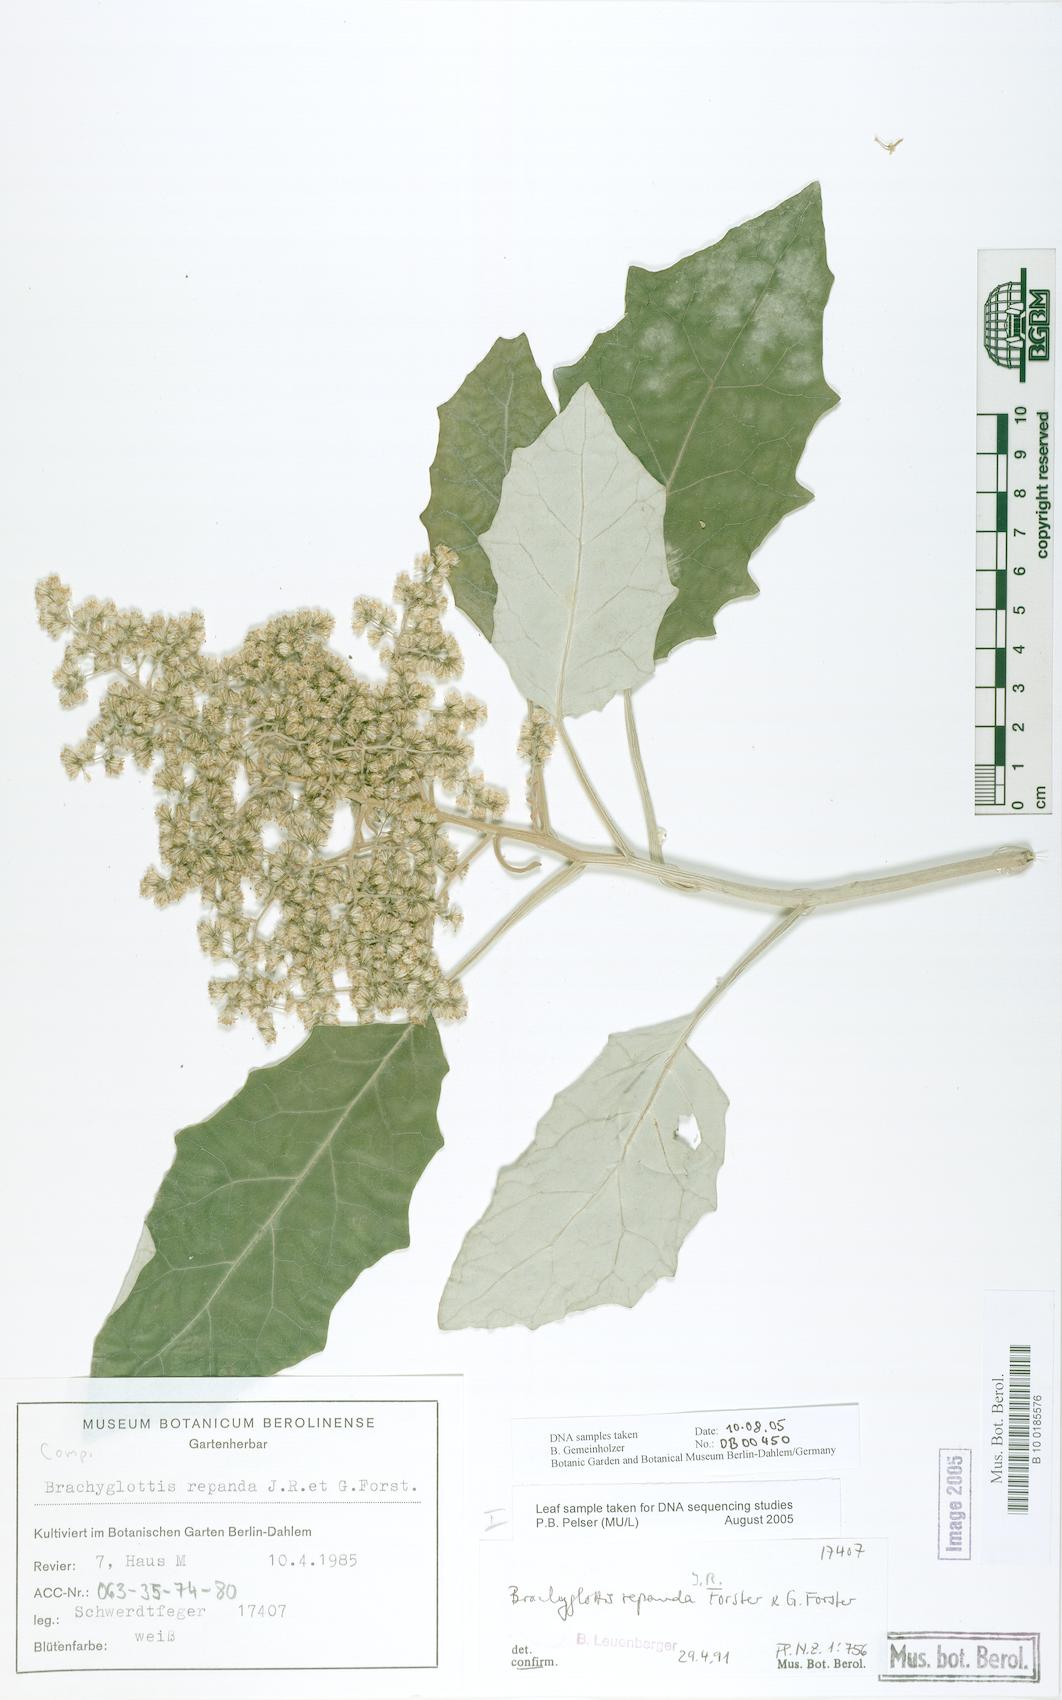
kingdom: Plantae
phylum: Tracheophyta
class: Magnoliopsida
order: Asterales
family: Asteraceae
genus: Brachyglottis
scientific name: Brachyglottis repanda
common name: Hedge ragwort
